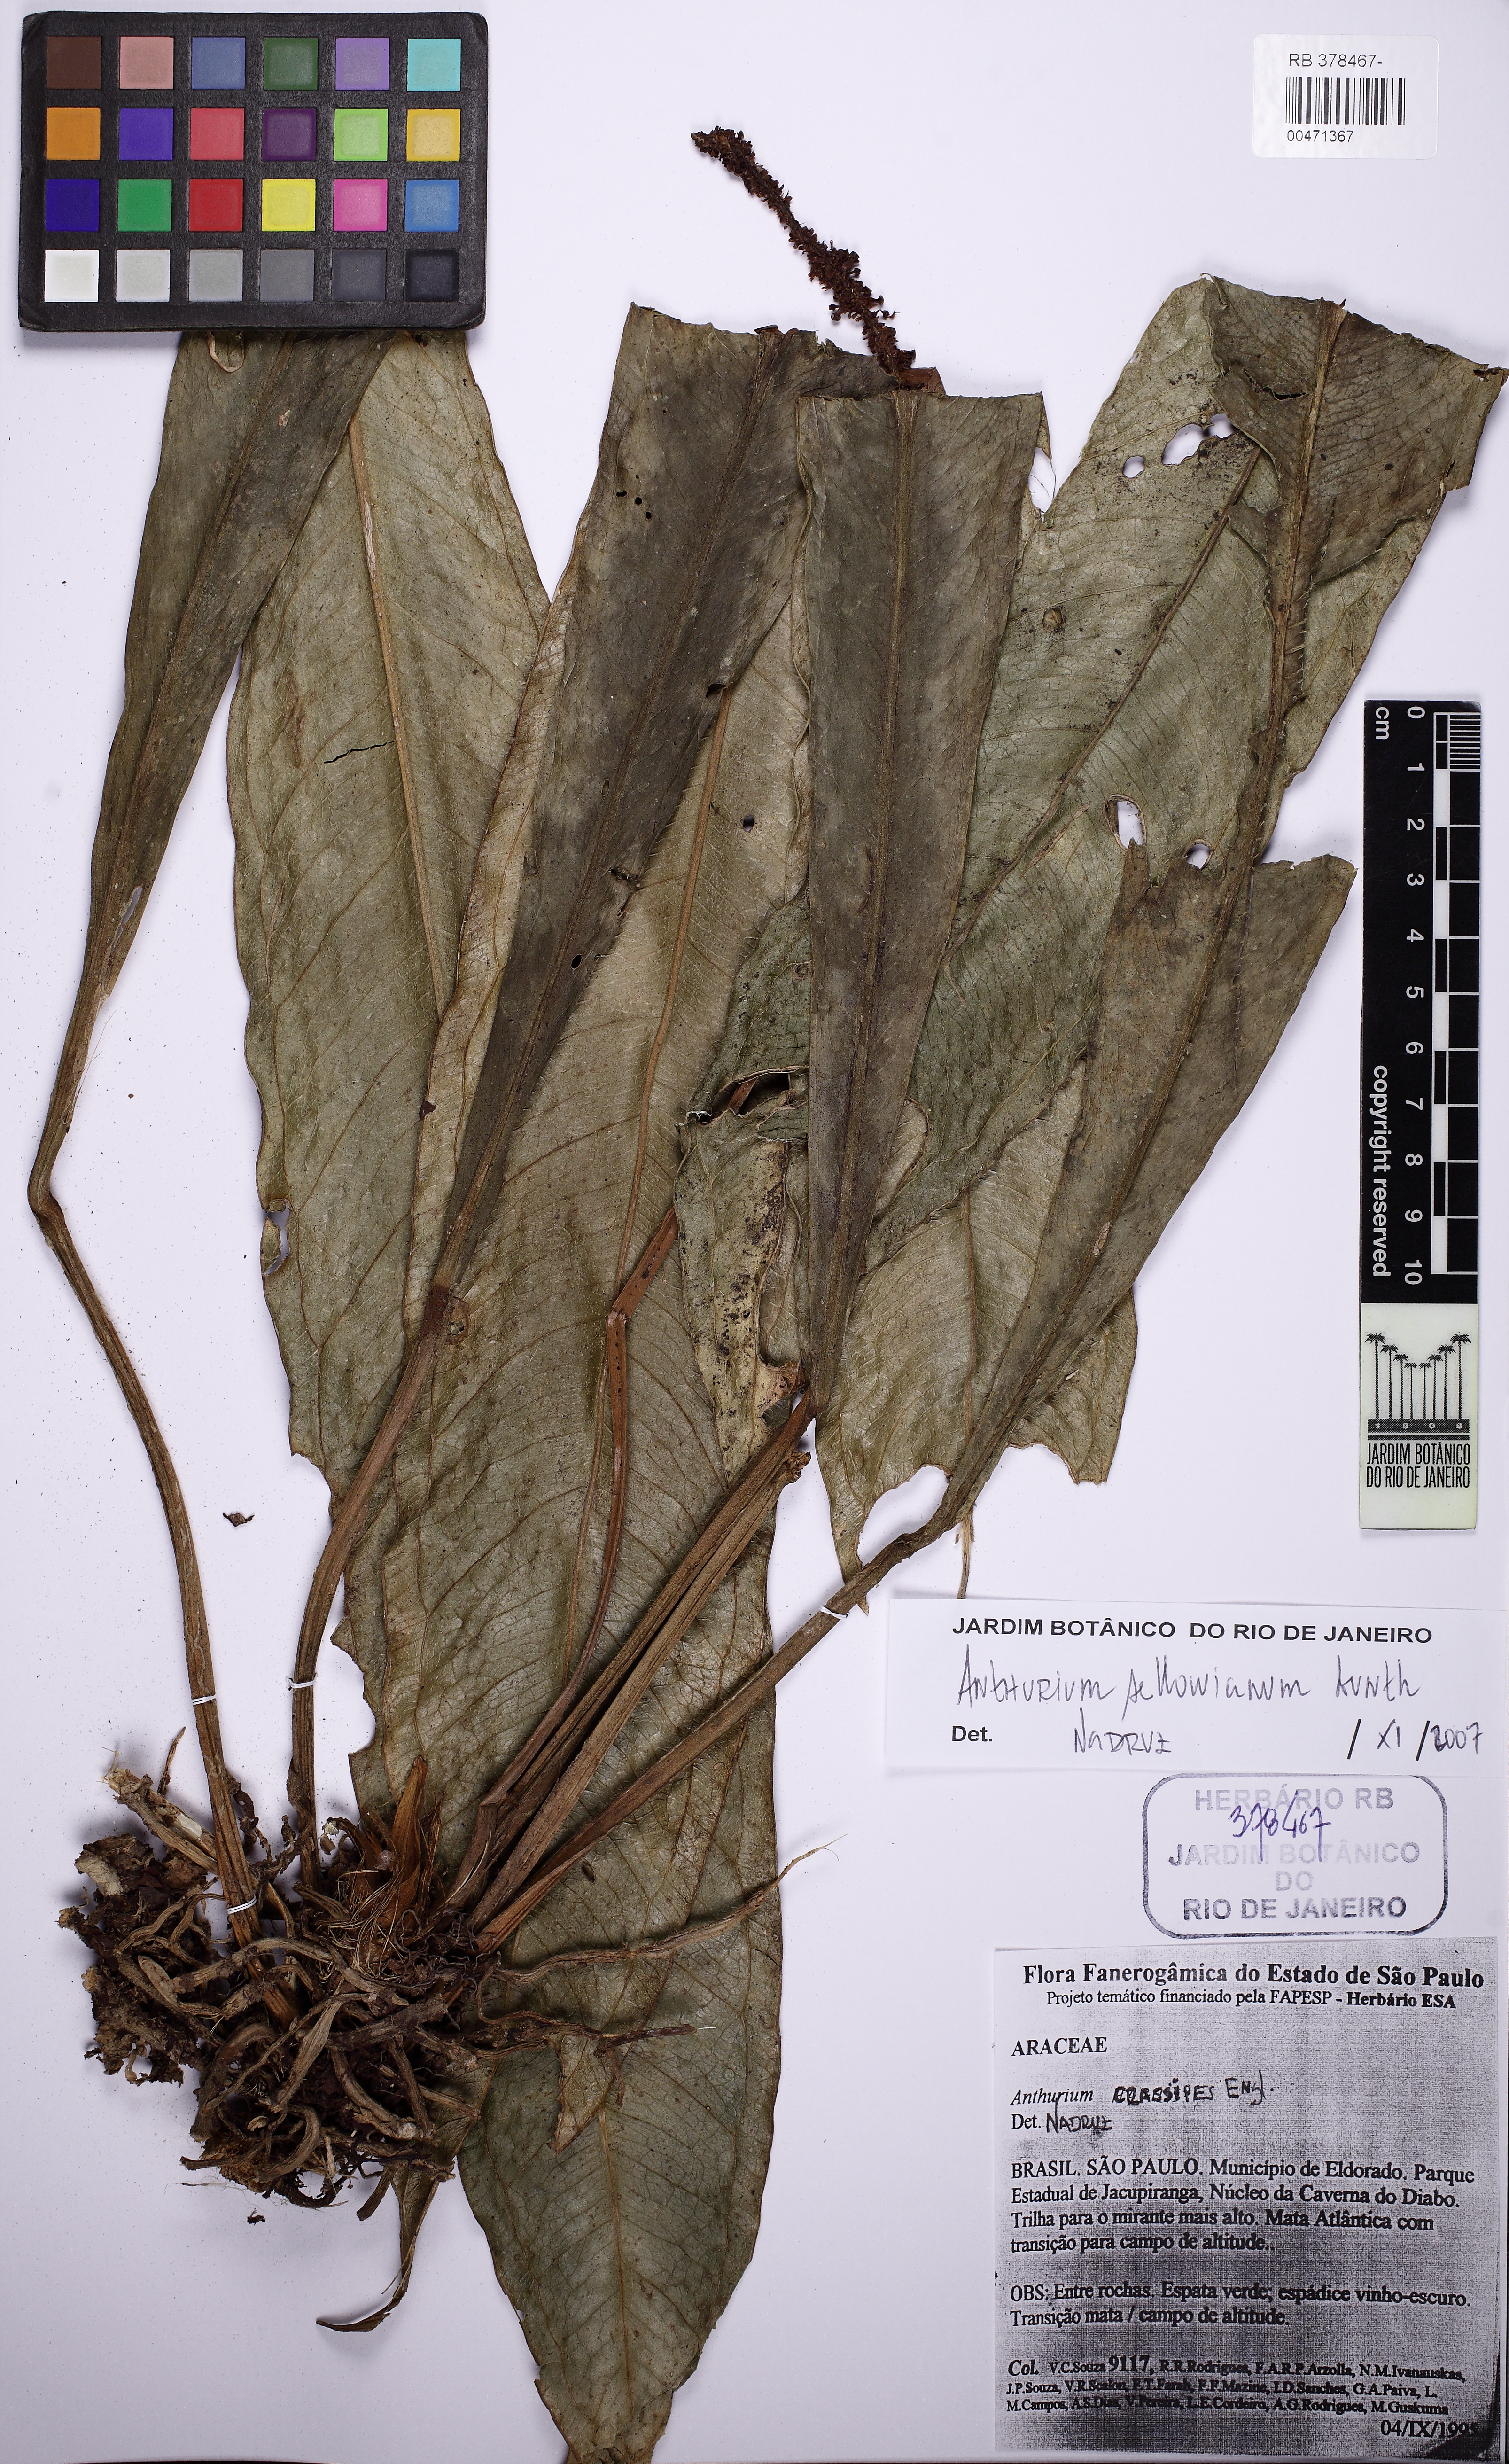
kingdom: Plantae
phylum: Tracheophyta
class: Liliopsida
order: Alismatales
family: Araceae
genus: Anthurium
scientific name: Anthurium sellowianum
